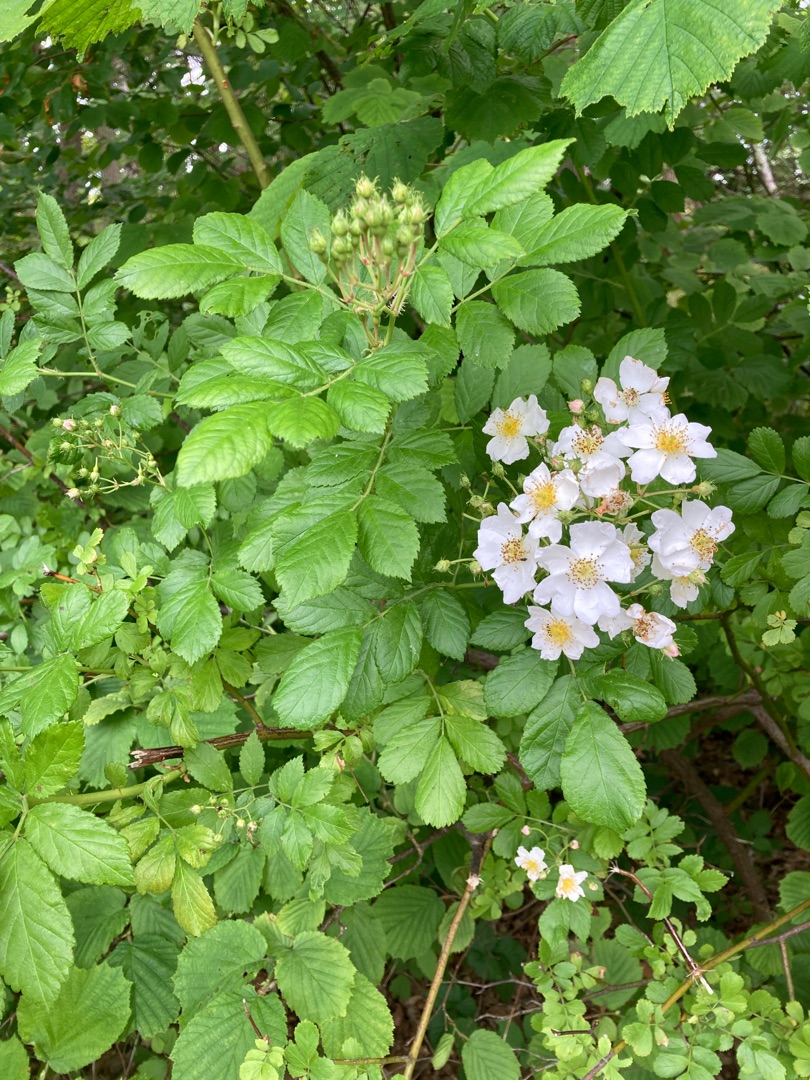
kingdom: Plantae
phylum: Tracheophyta
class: Magnoliopsida
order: Rosales
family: Rosaceae
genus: Rosa
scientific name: Rosa multiflora
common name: Mangeblomstret rose
